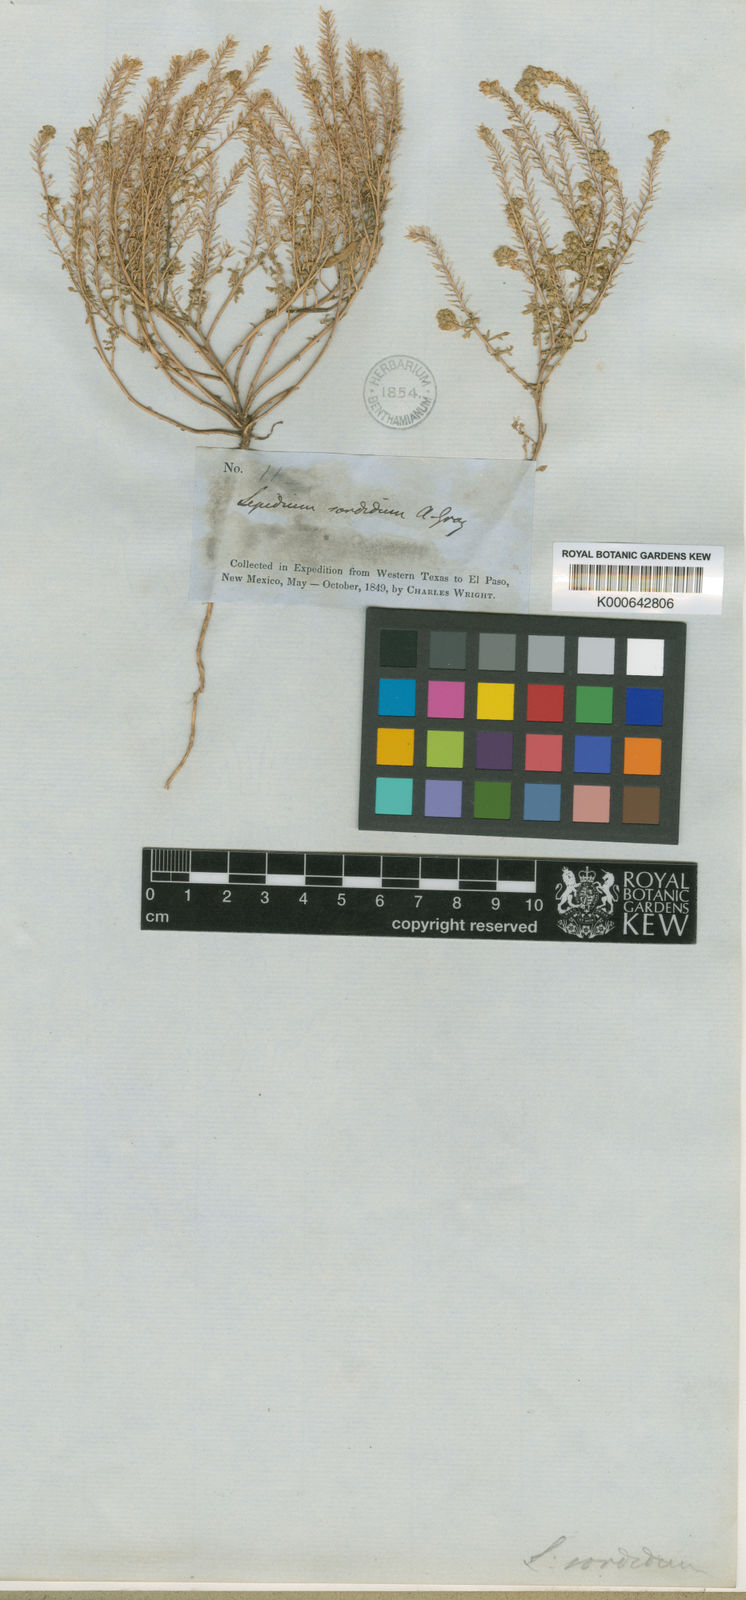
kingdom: Plantae
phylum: Tracheophyta
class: Magnoliopsida
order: Brassicales
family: Brassicaceae
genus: Lepidium
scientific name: Lepidium sordidum
